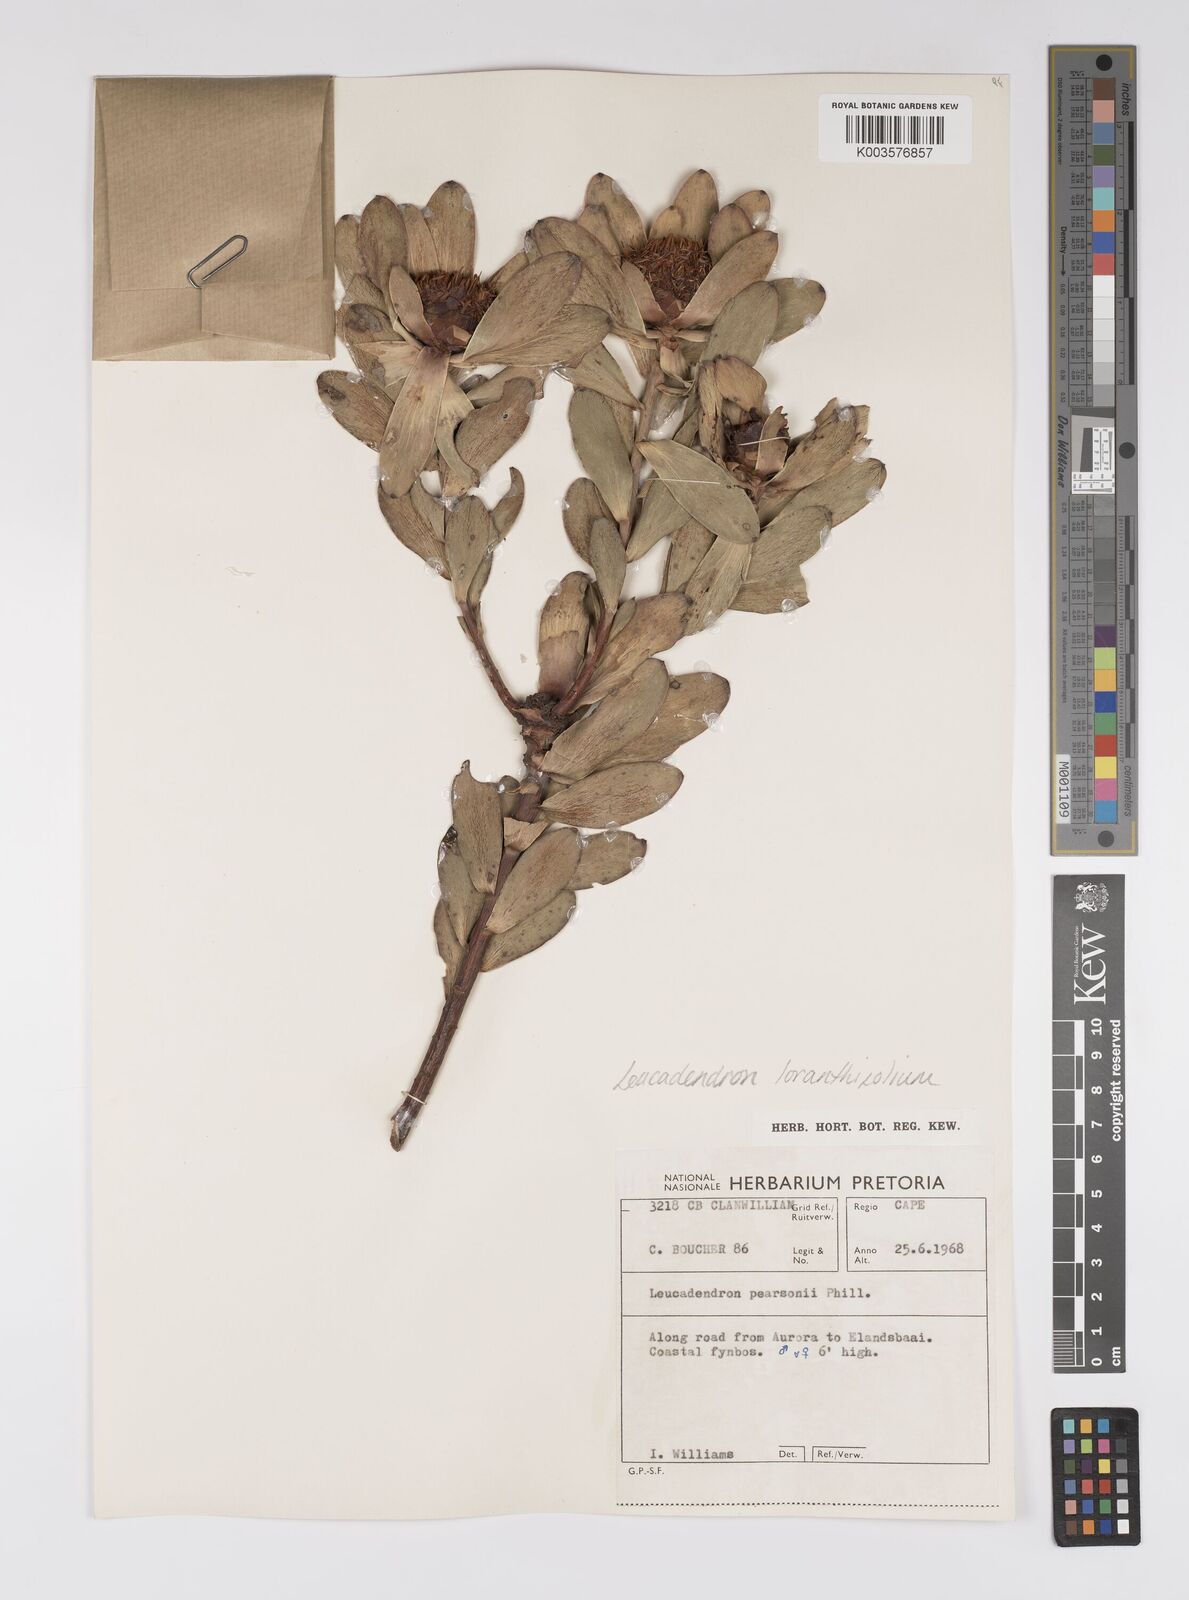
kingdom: Plantae
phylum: Tracheophyta
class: Magnoliopsida
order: Proteales
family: Proteaceae
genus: Leucadendron
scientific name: Leucadendron loranthifolium
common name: Green-flower sunbush
